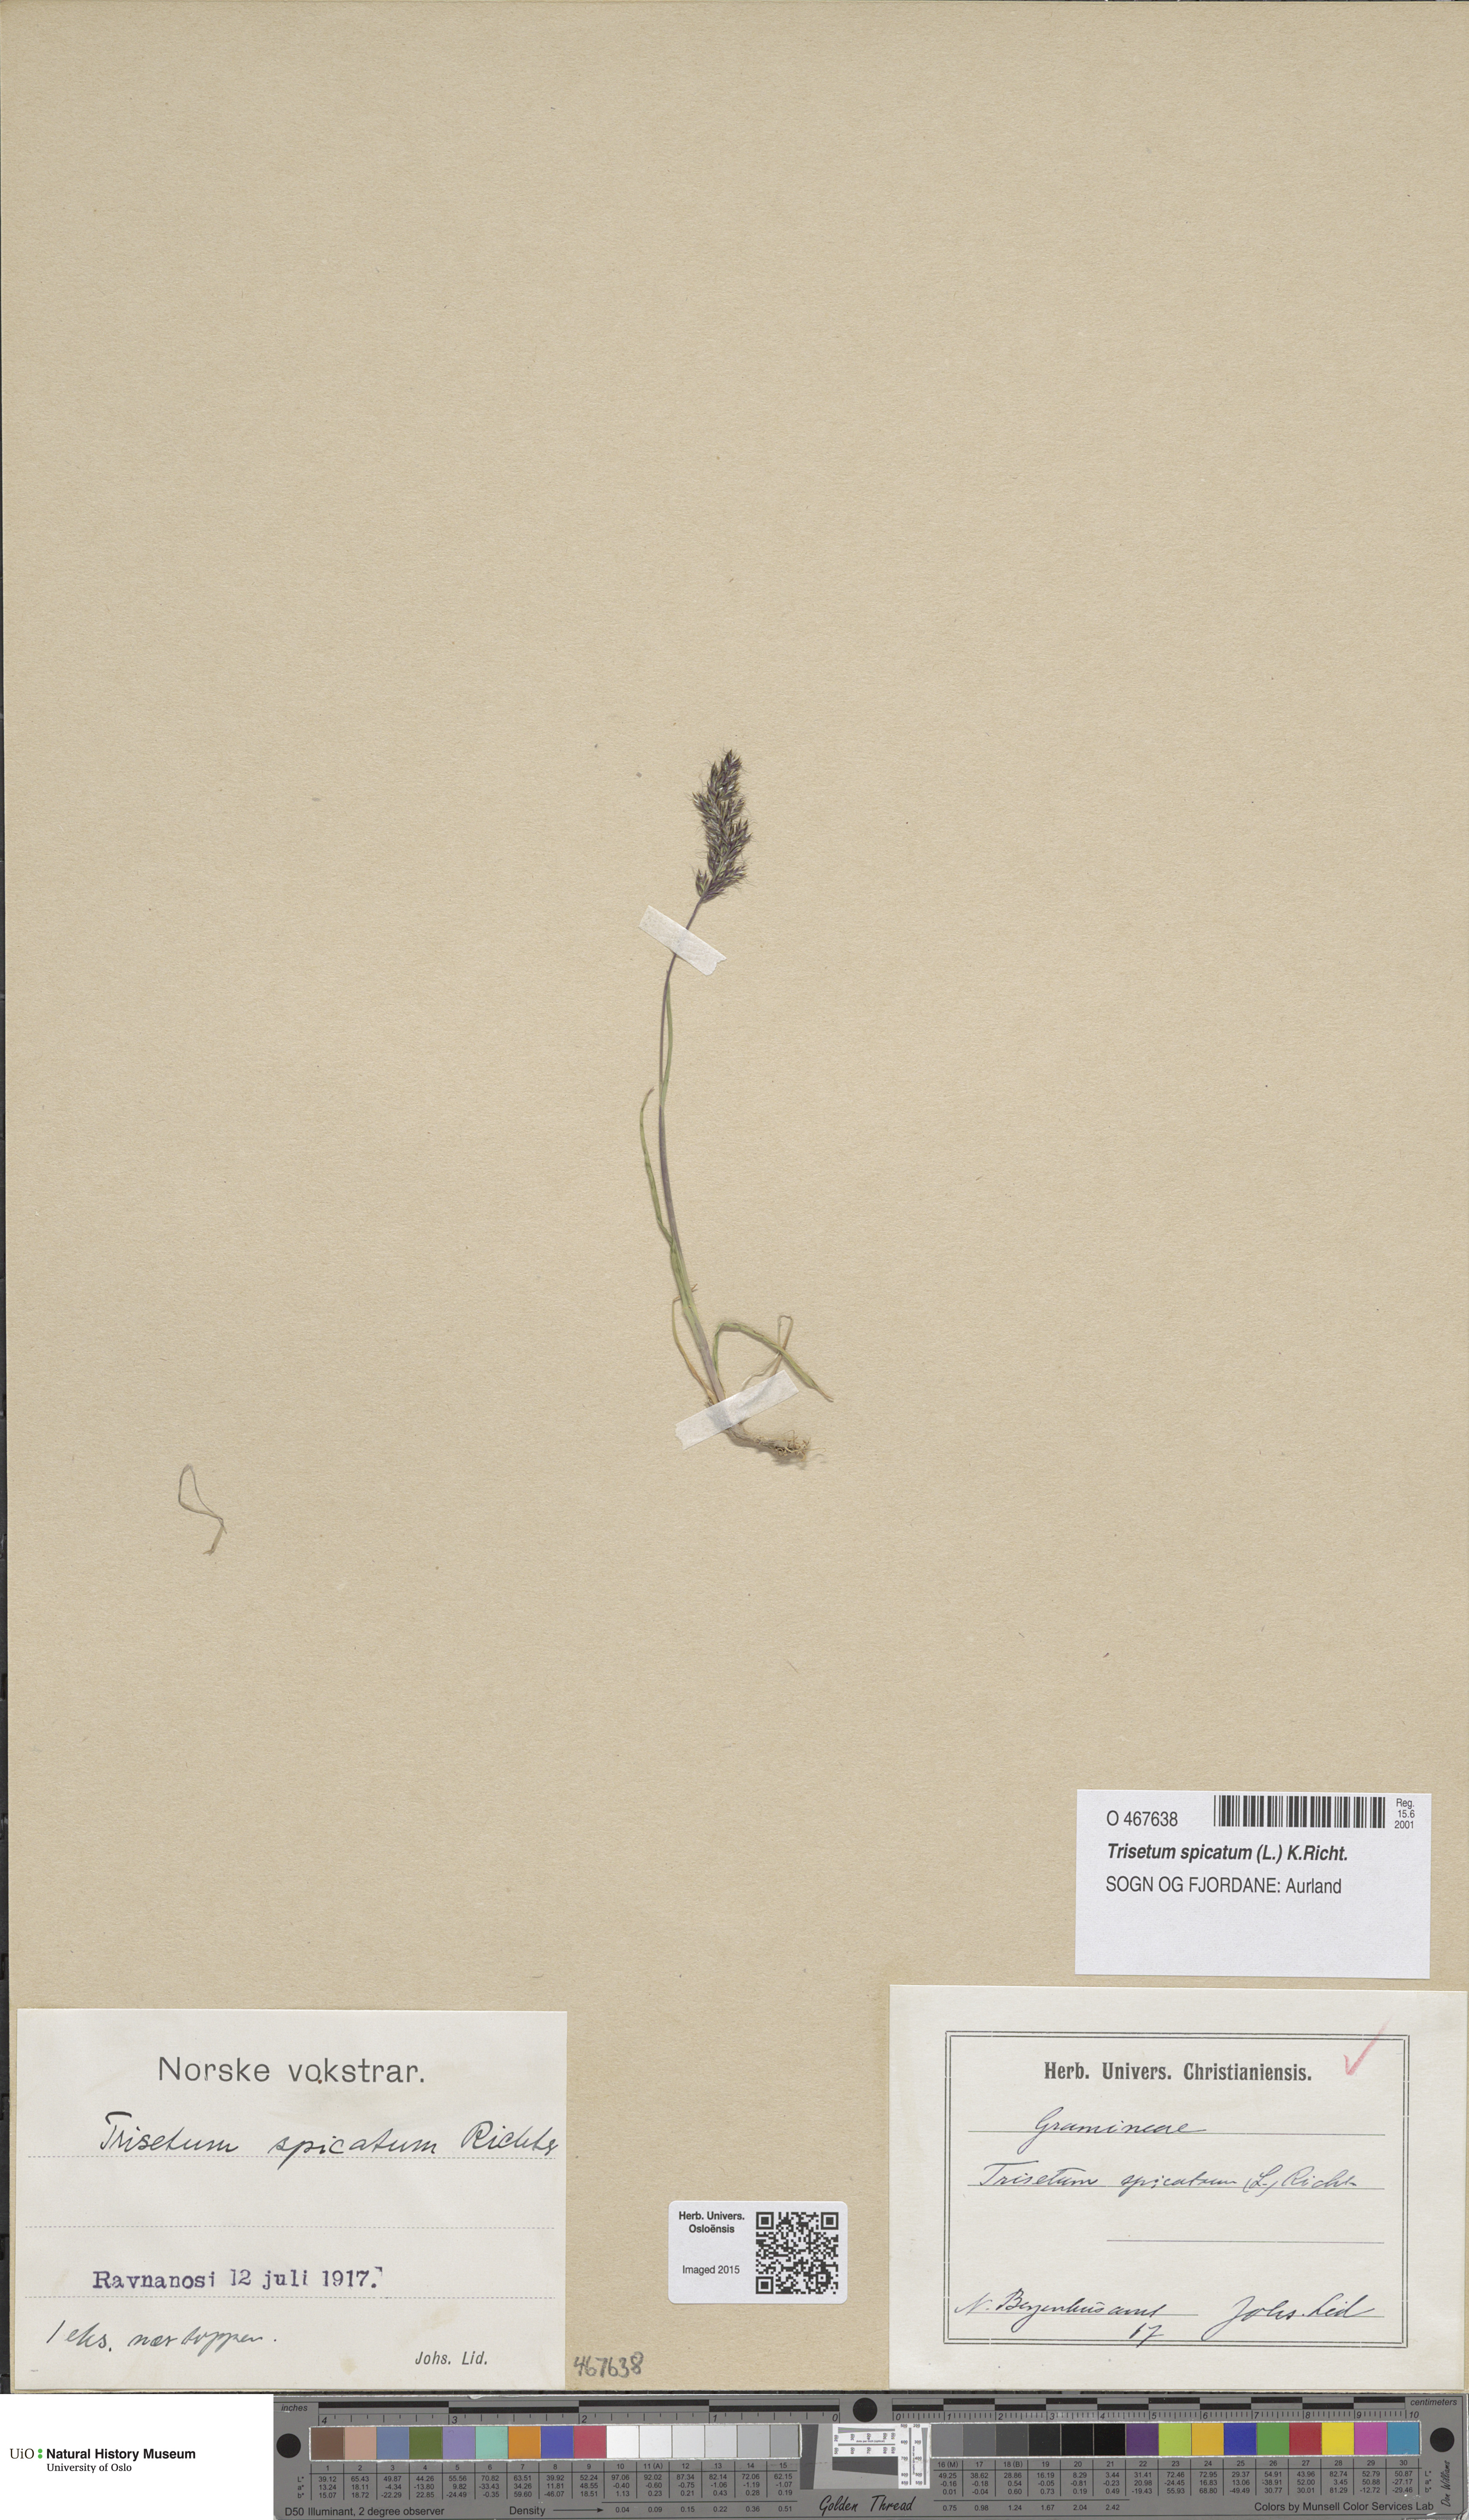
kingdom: Plantae
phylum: Tracheophyta
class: Liliopsida
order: Poales
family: Poaceae
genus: Koeleria
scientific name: Koeleria spicata
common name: Mountain trisetum
